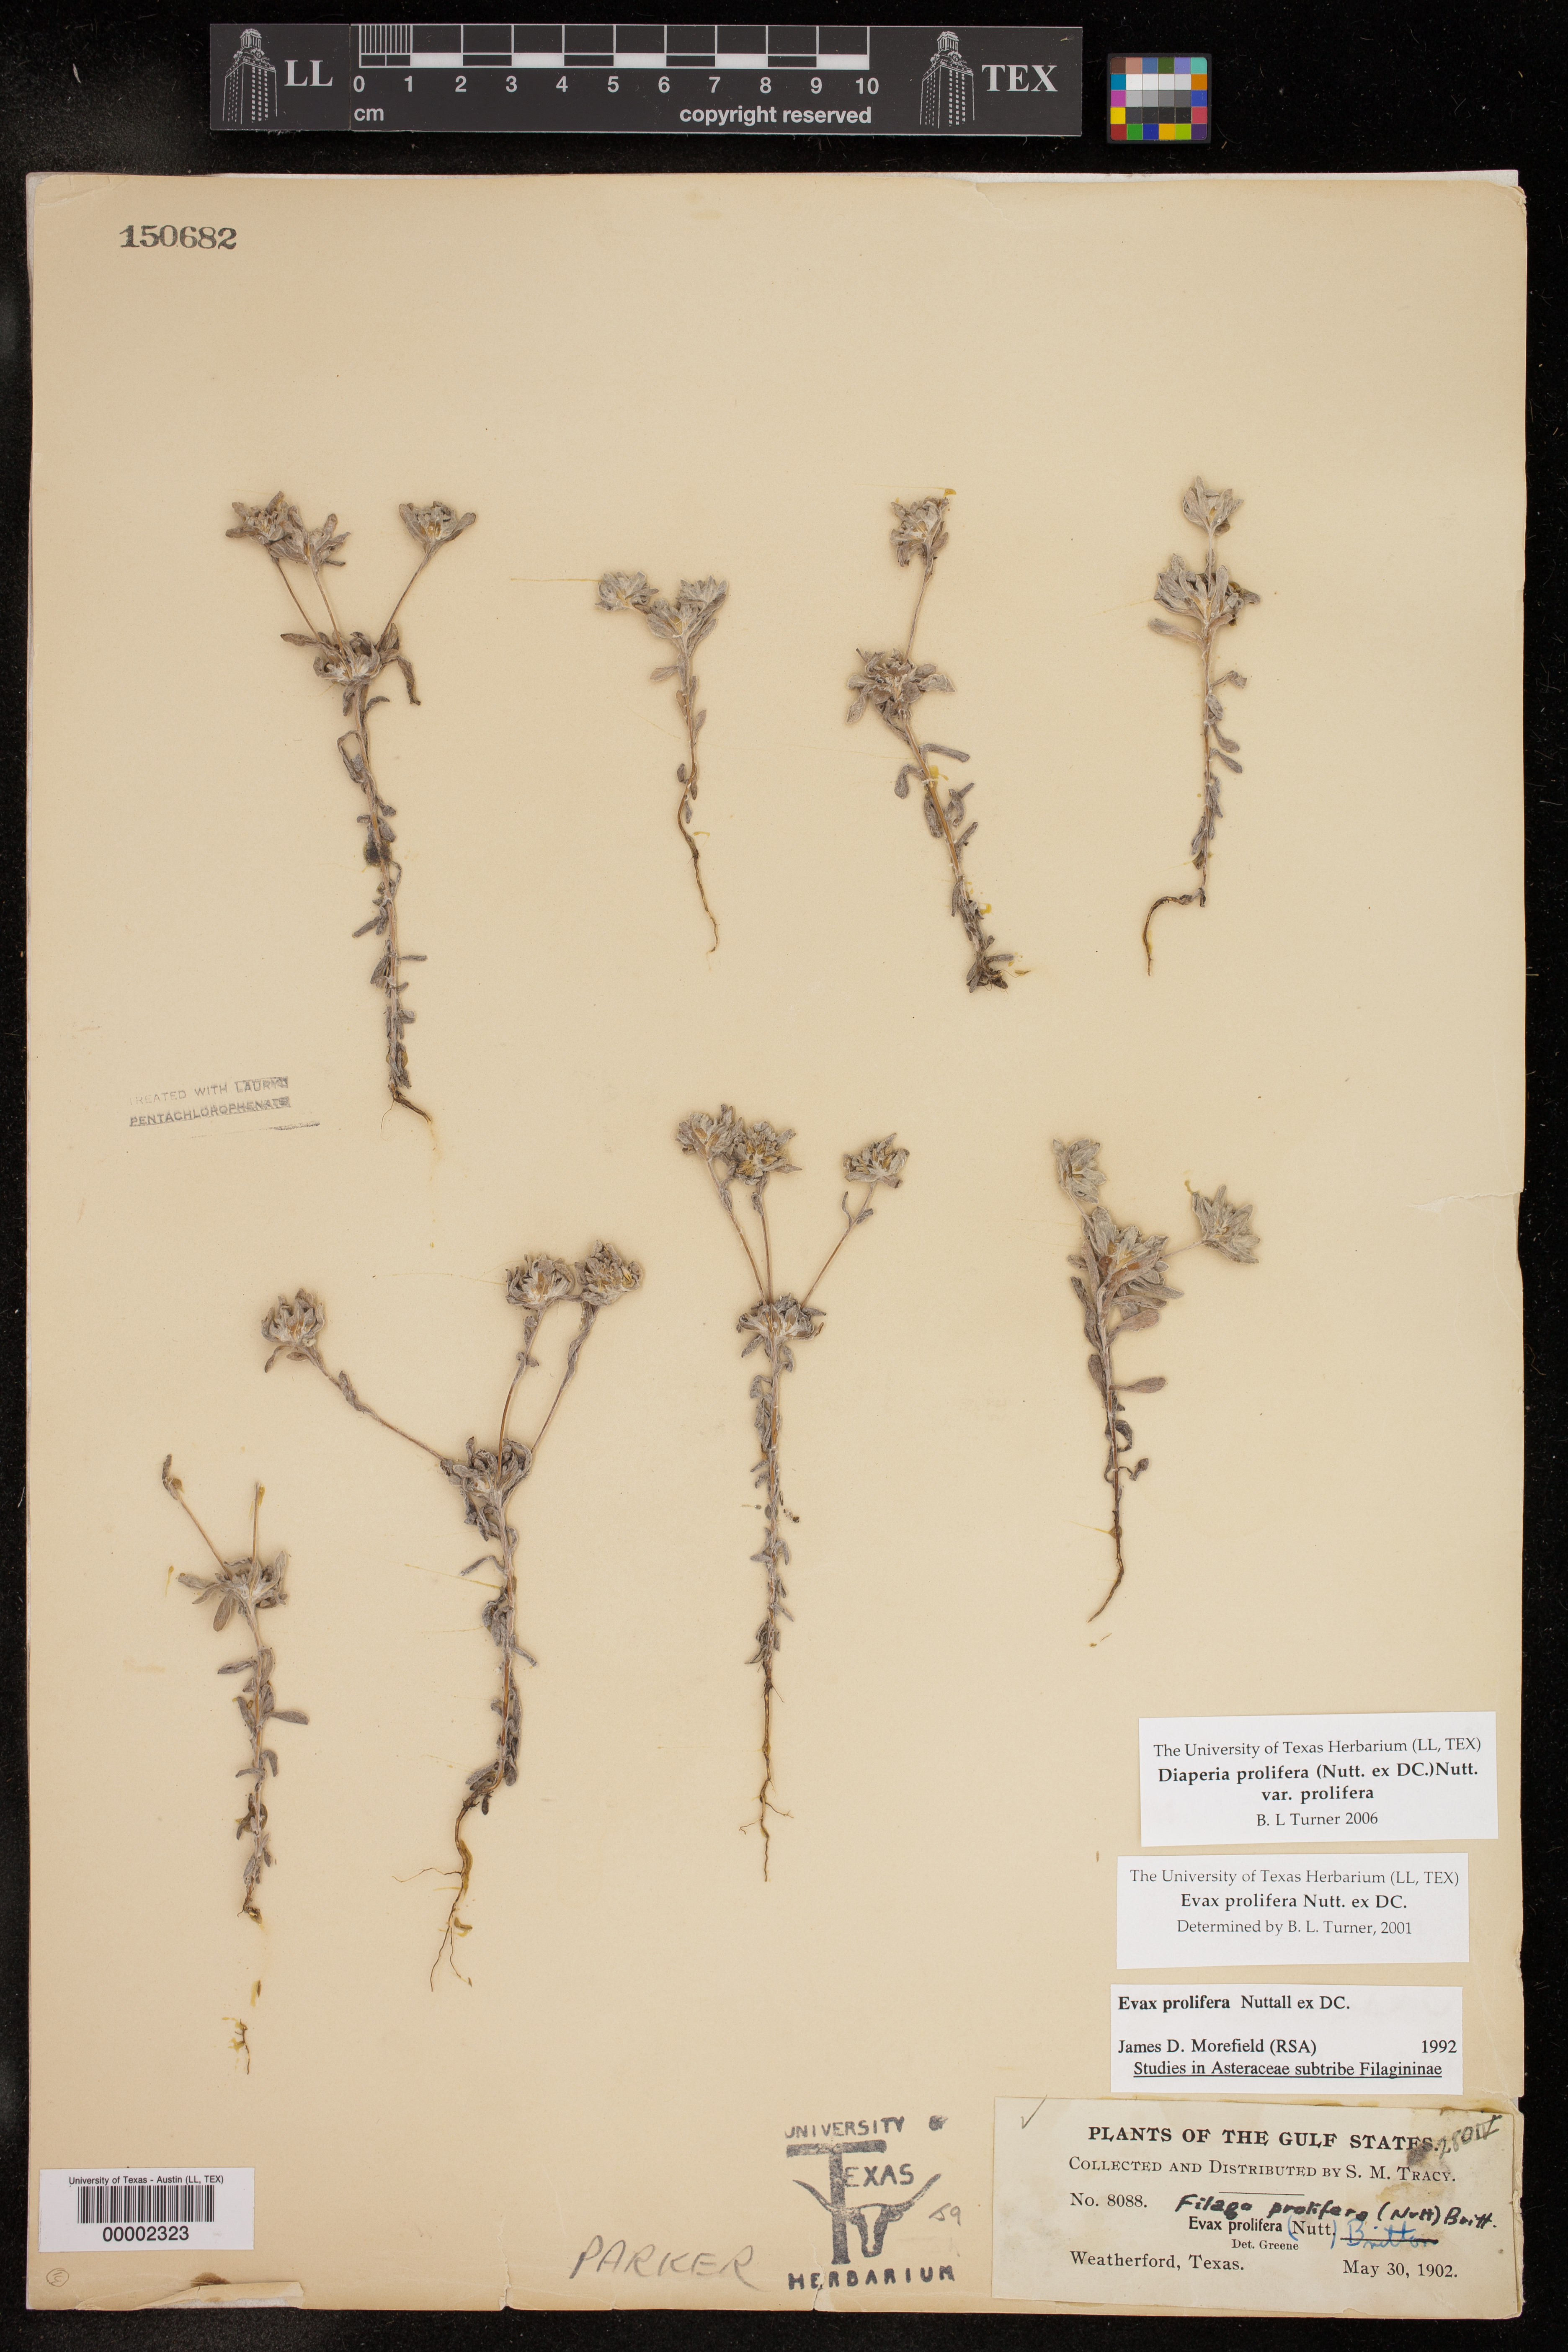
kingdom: Plantae
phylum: Tracheophyta
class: Magnoliopsida
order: Asterales
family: Asteraceae
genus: Diaperia
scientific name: Diaperia prolifera
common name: Big-head rabbit-tobacco
